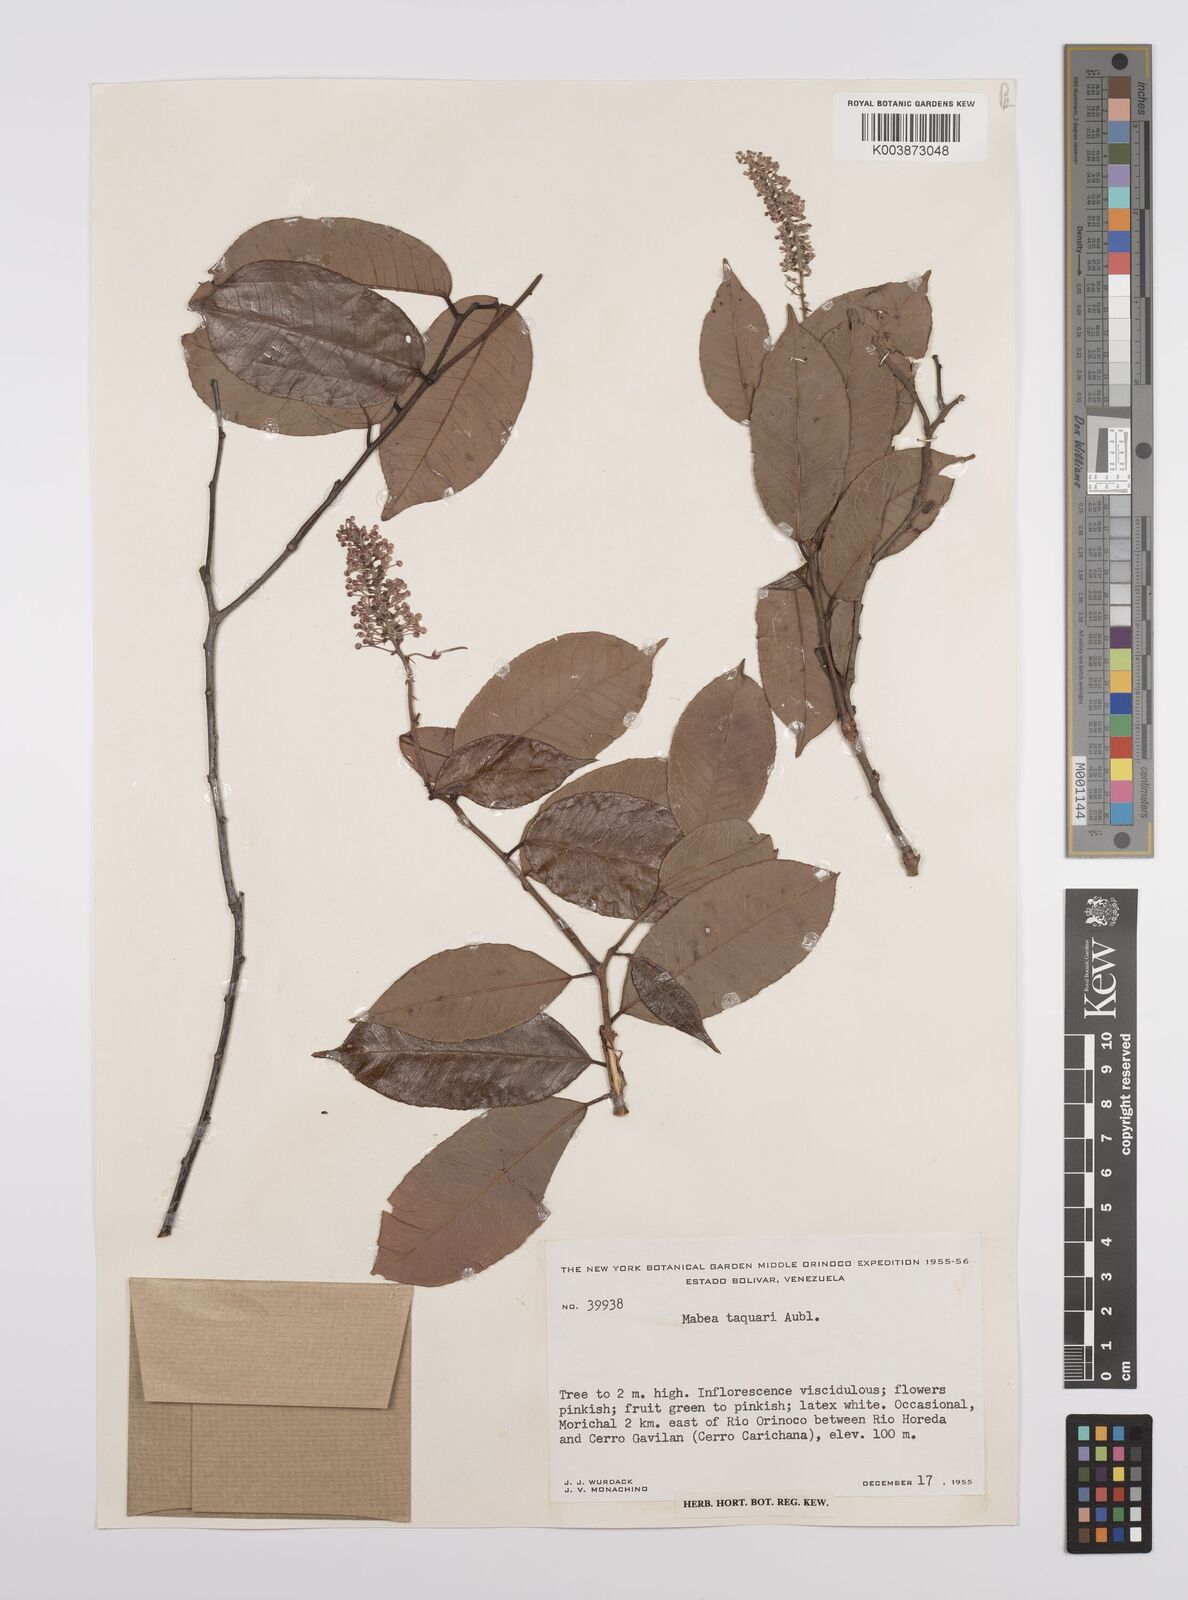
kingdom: Plantae
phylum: Tracheophyta
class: Magnoliopsida
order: Malpighiales
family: Euphorbiaceae
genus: Mabea
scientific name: Mabea taquari
